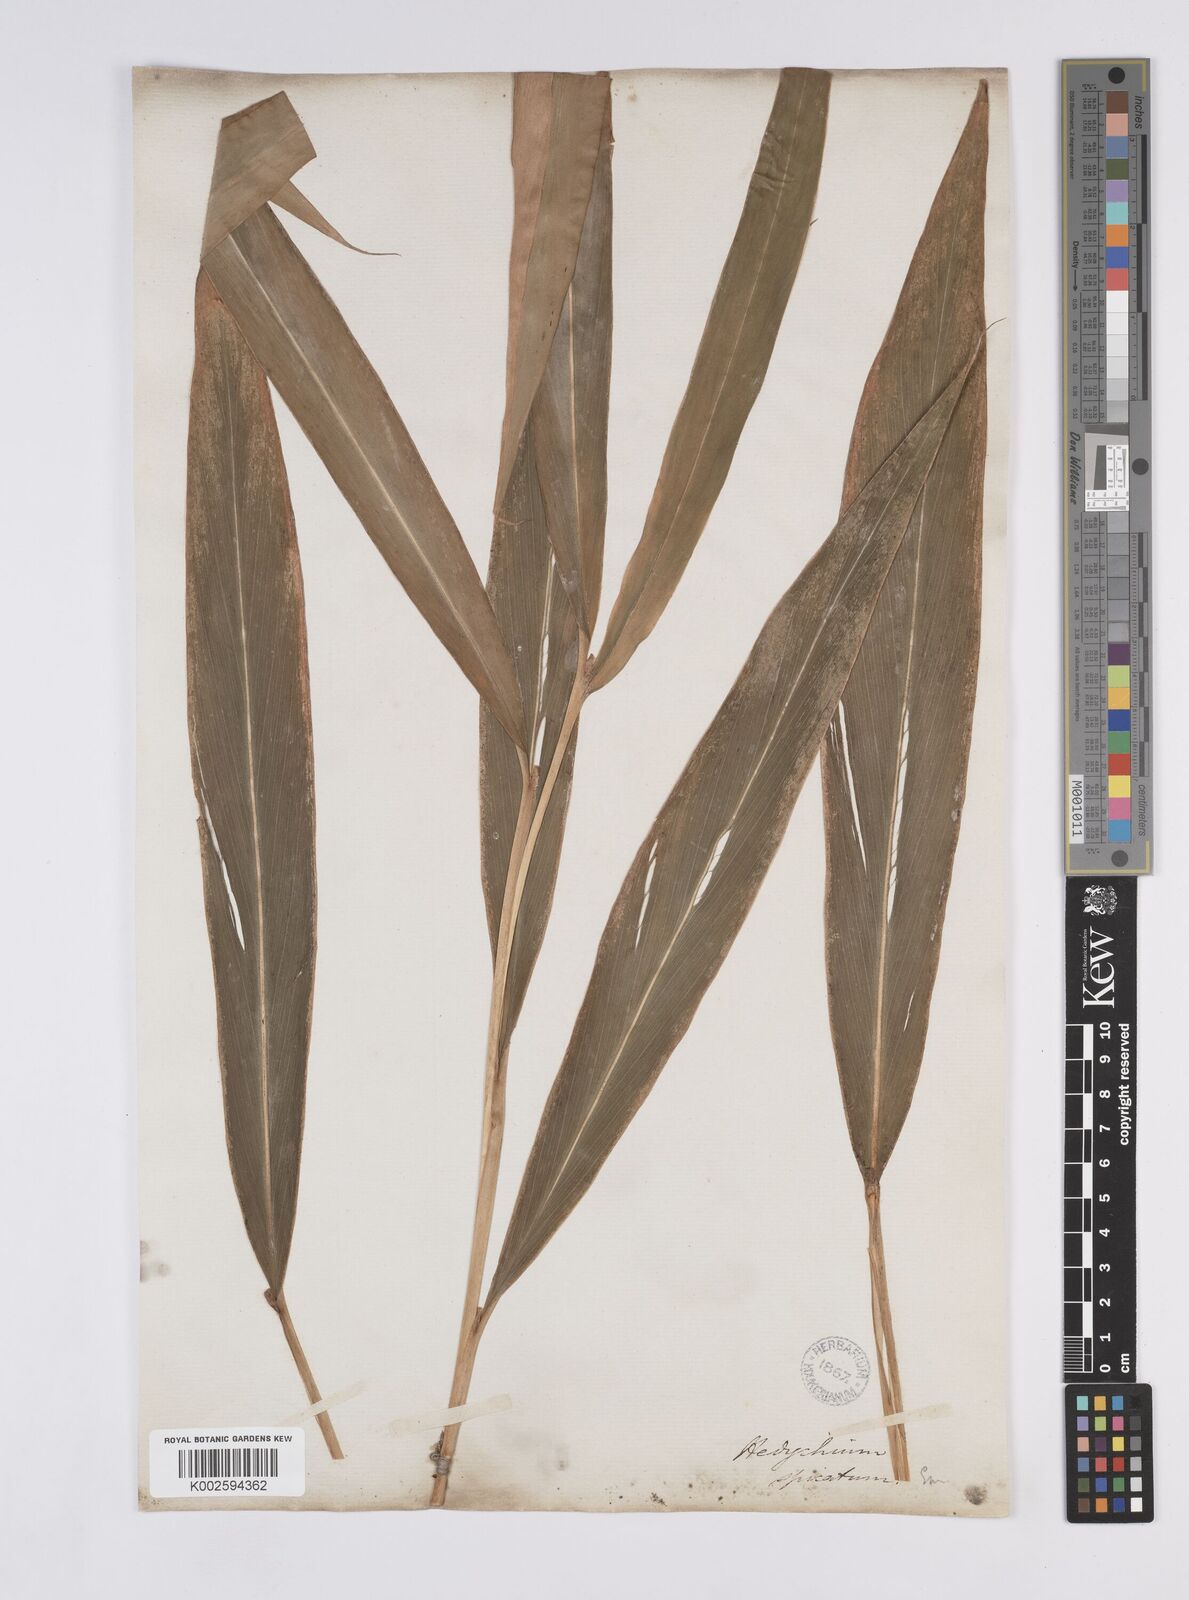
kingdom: Plantae
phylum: Tracheophyta
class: Liliopsida
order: Zingiberales
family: Zingiberaceae
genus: Hedychium
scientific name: Hedychium spicatum
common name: Spiked ginger-lily
